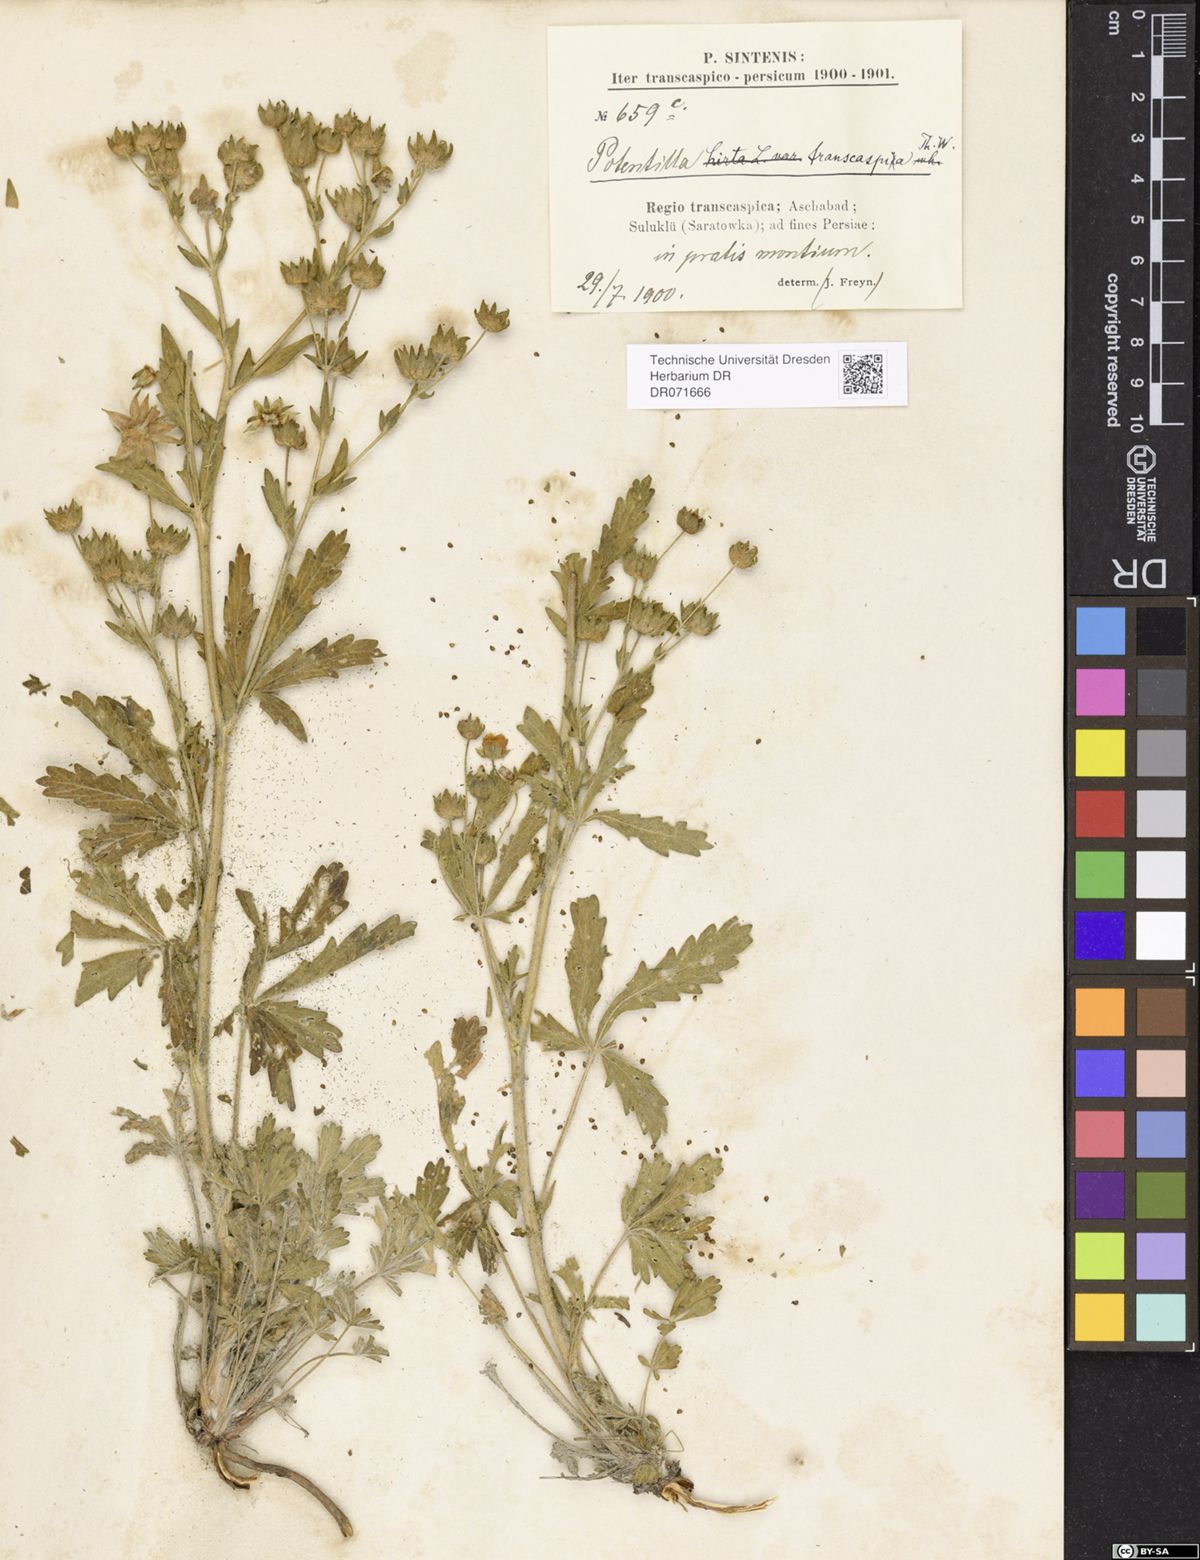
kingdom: Plantae
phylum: Tracheophyta
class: Magnoliopsida
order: Rosales
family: Rosaceae
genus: Potentilla
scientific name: Potentilla pedata
